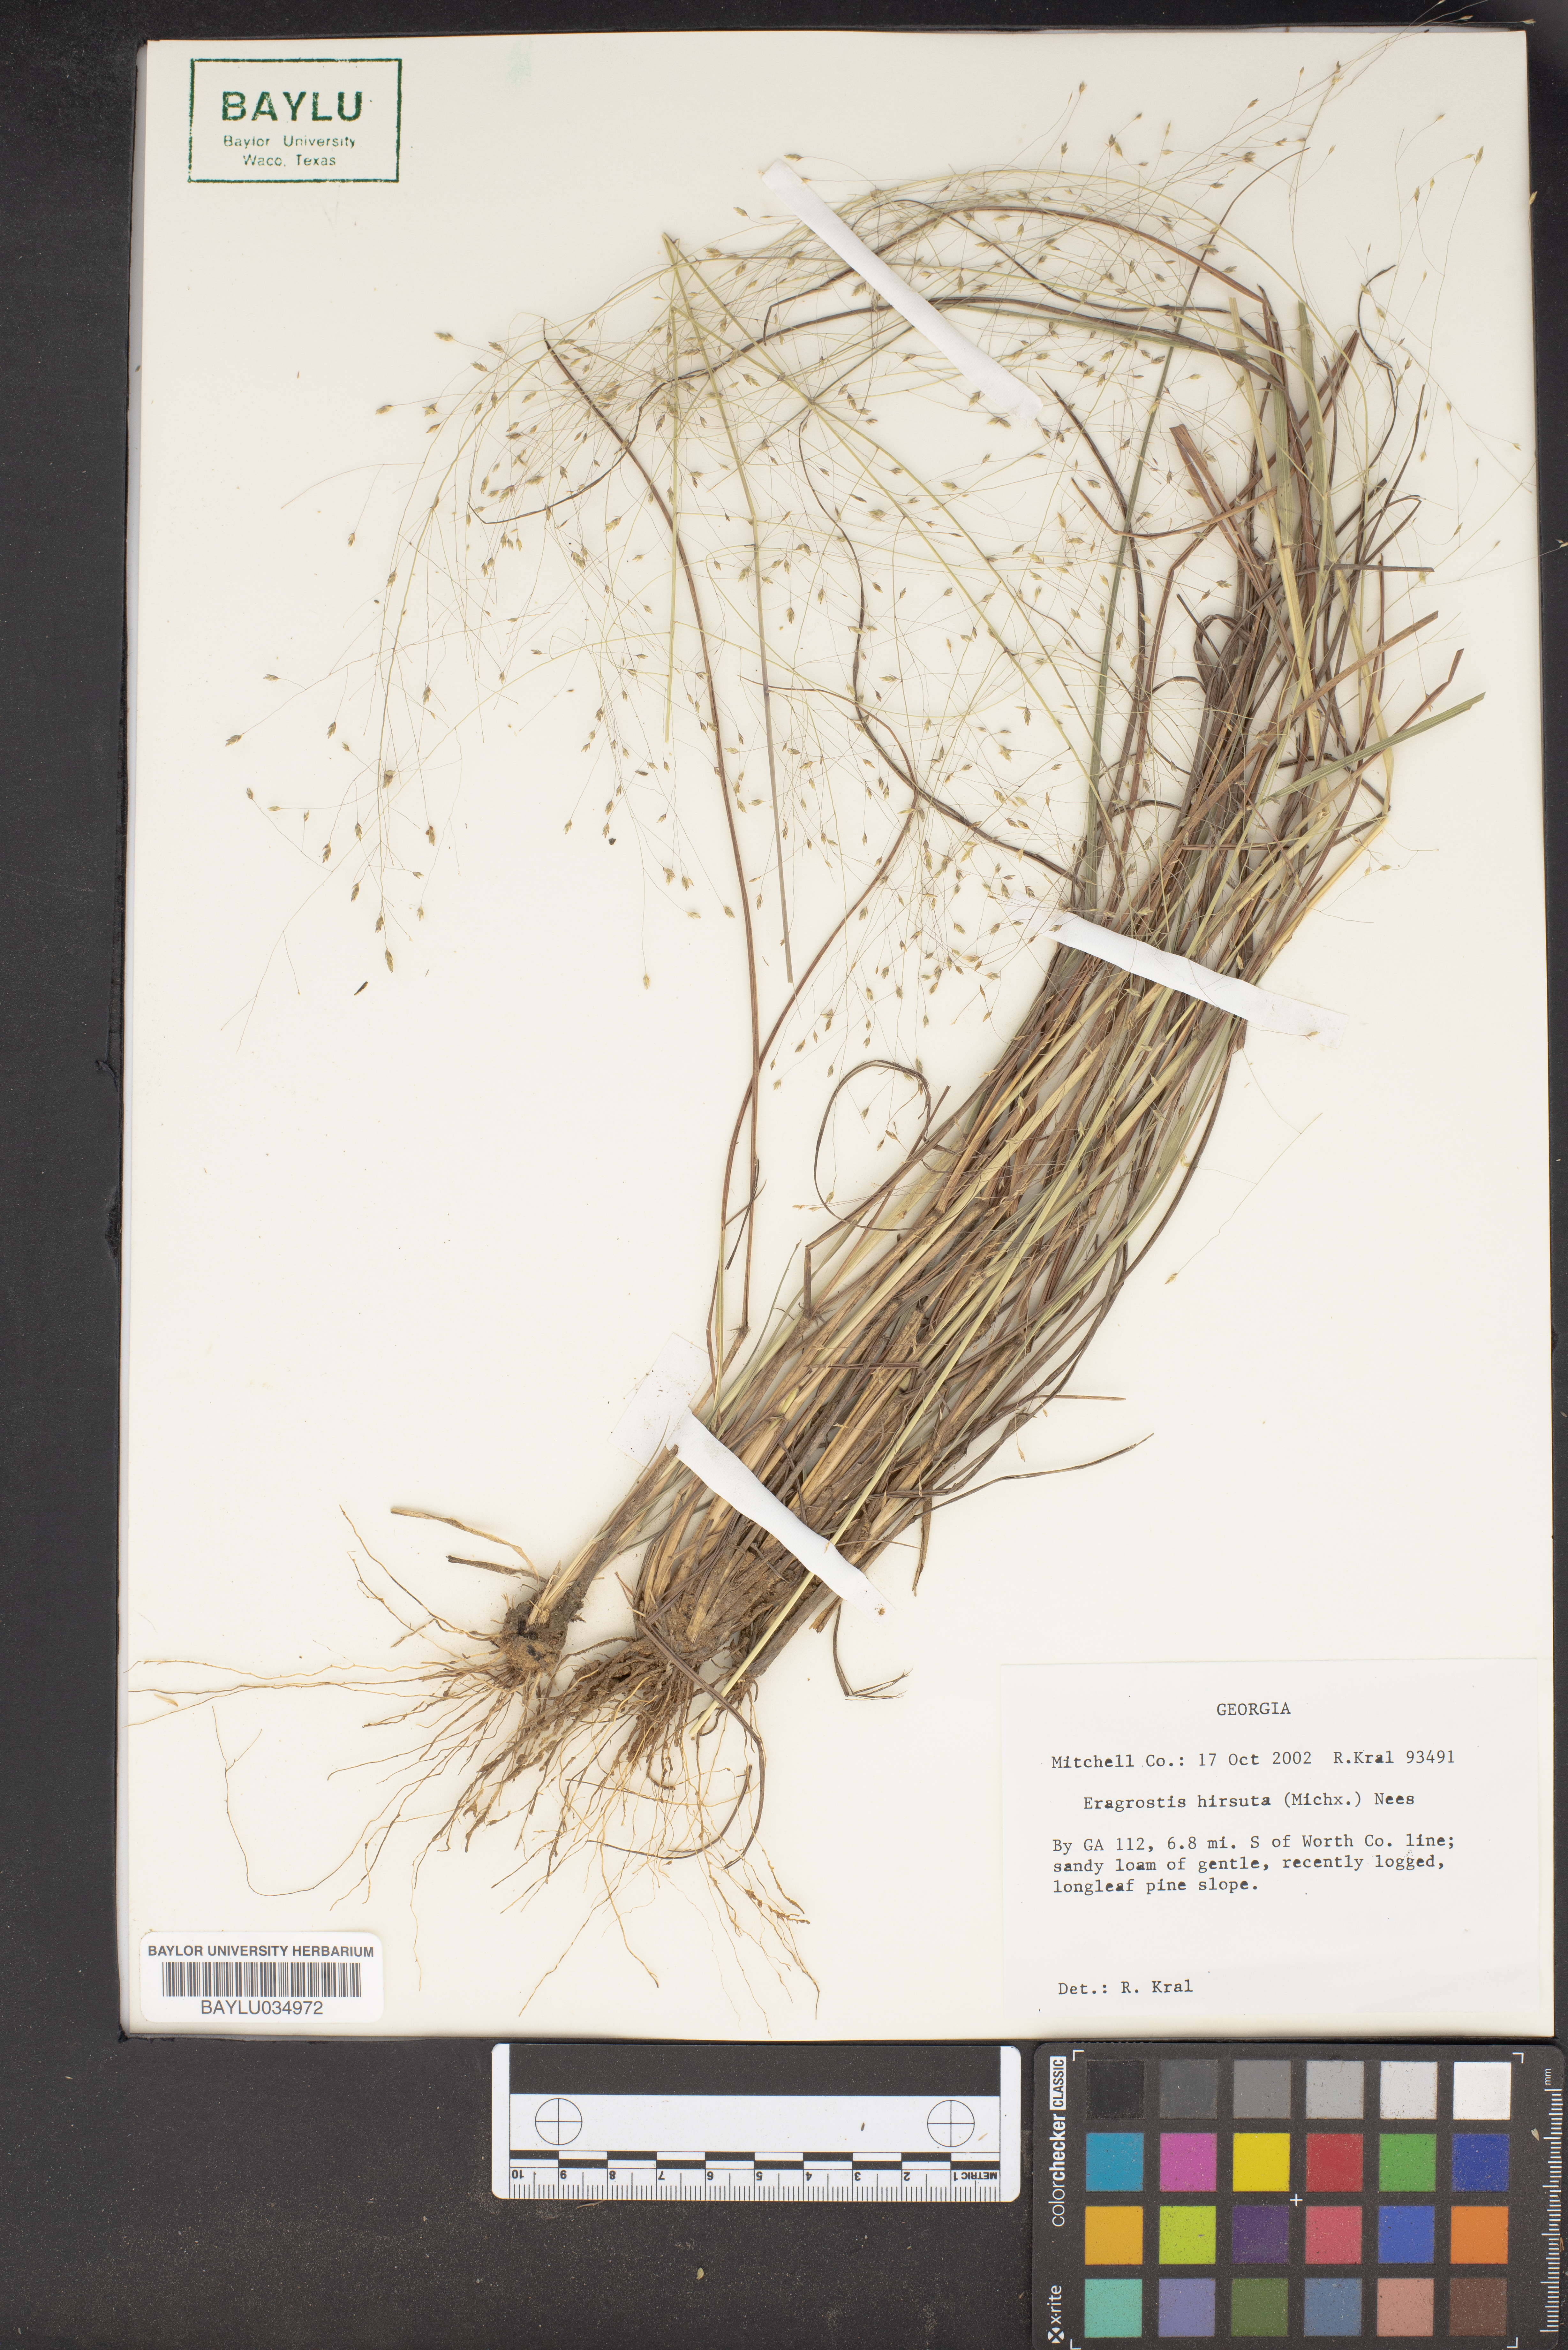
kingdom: Plantae
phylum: Tracheophyta
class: Liliopsida
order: Poales
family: Poaceae
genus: Eragrostis
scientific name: Eragrostis hirsuta
